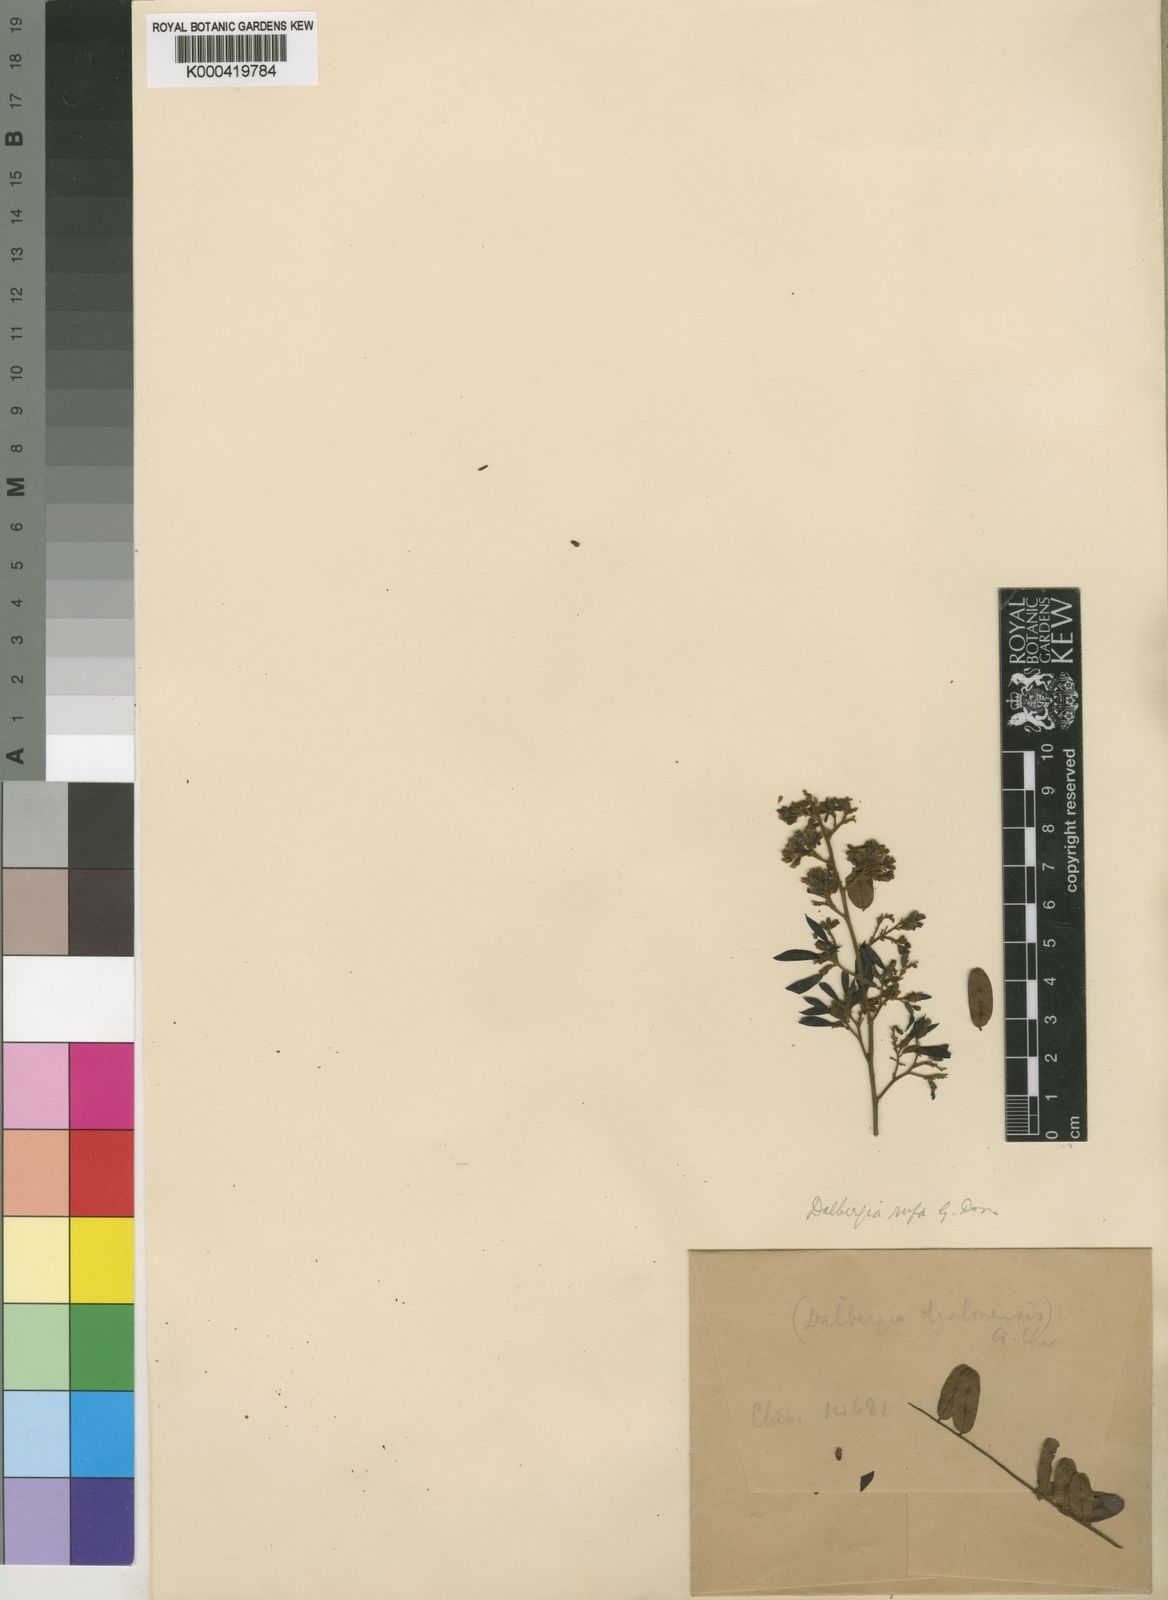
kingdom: Plantae
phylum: Tracheophyta
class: Magnoliopsida
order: Fabales
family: Fabaceae
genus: Dalbergia
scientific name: Dalbergia hostilis
